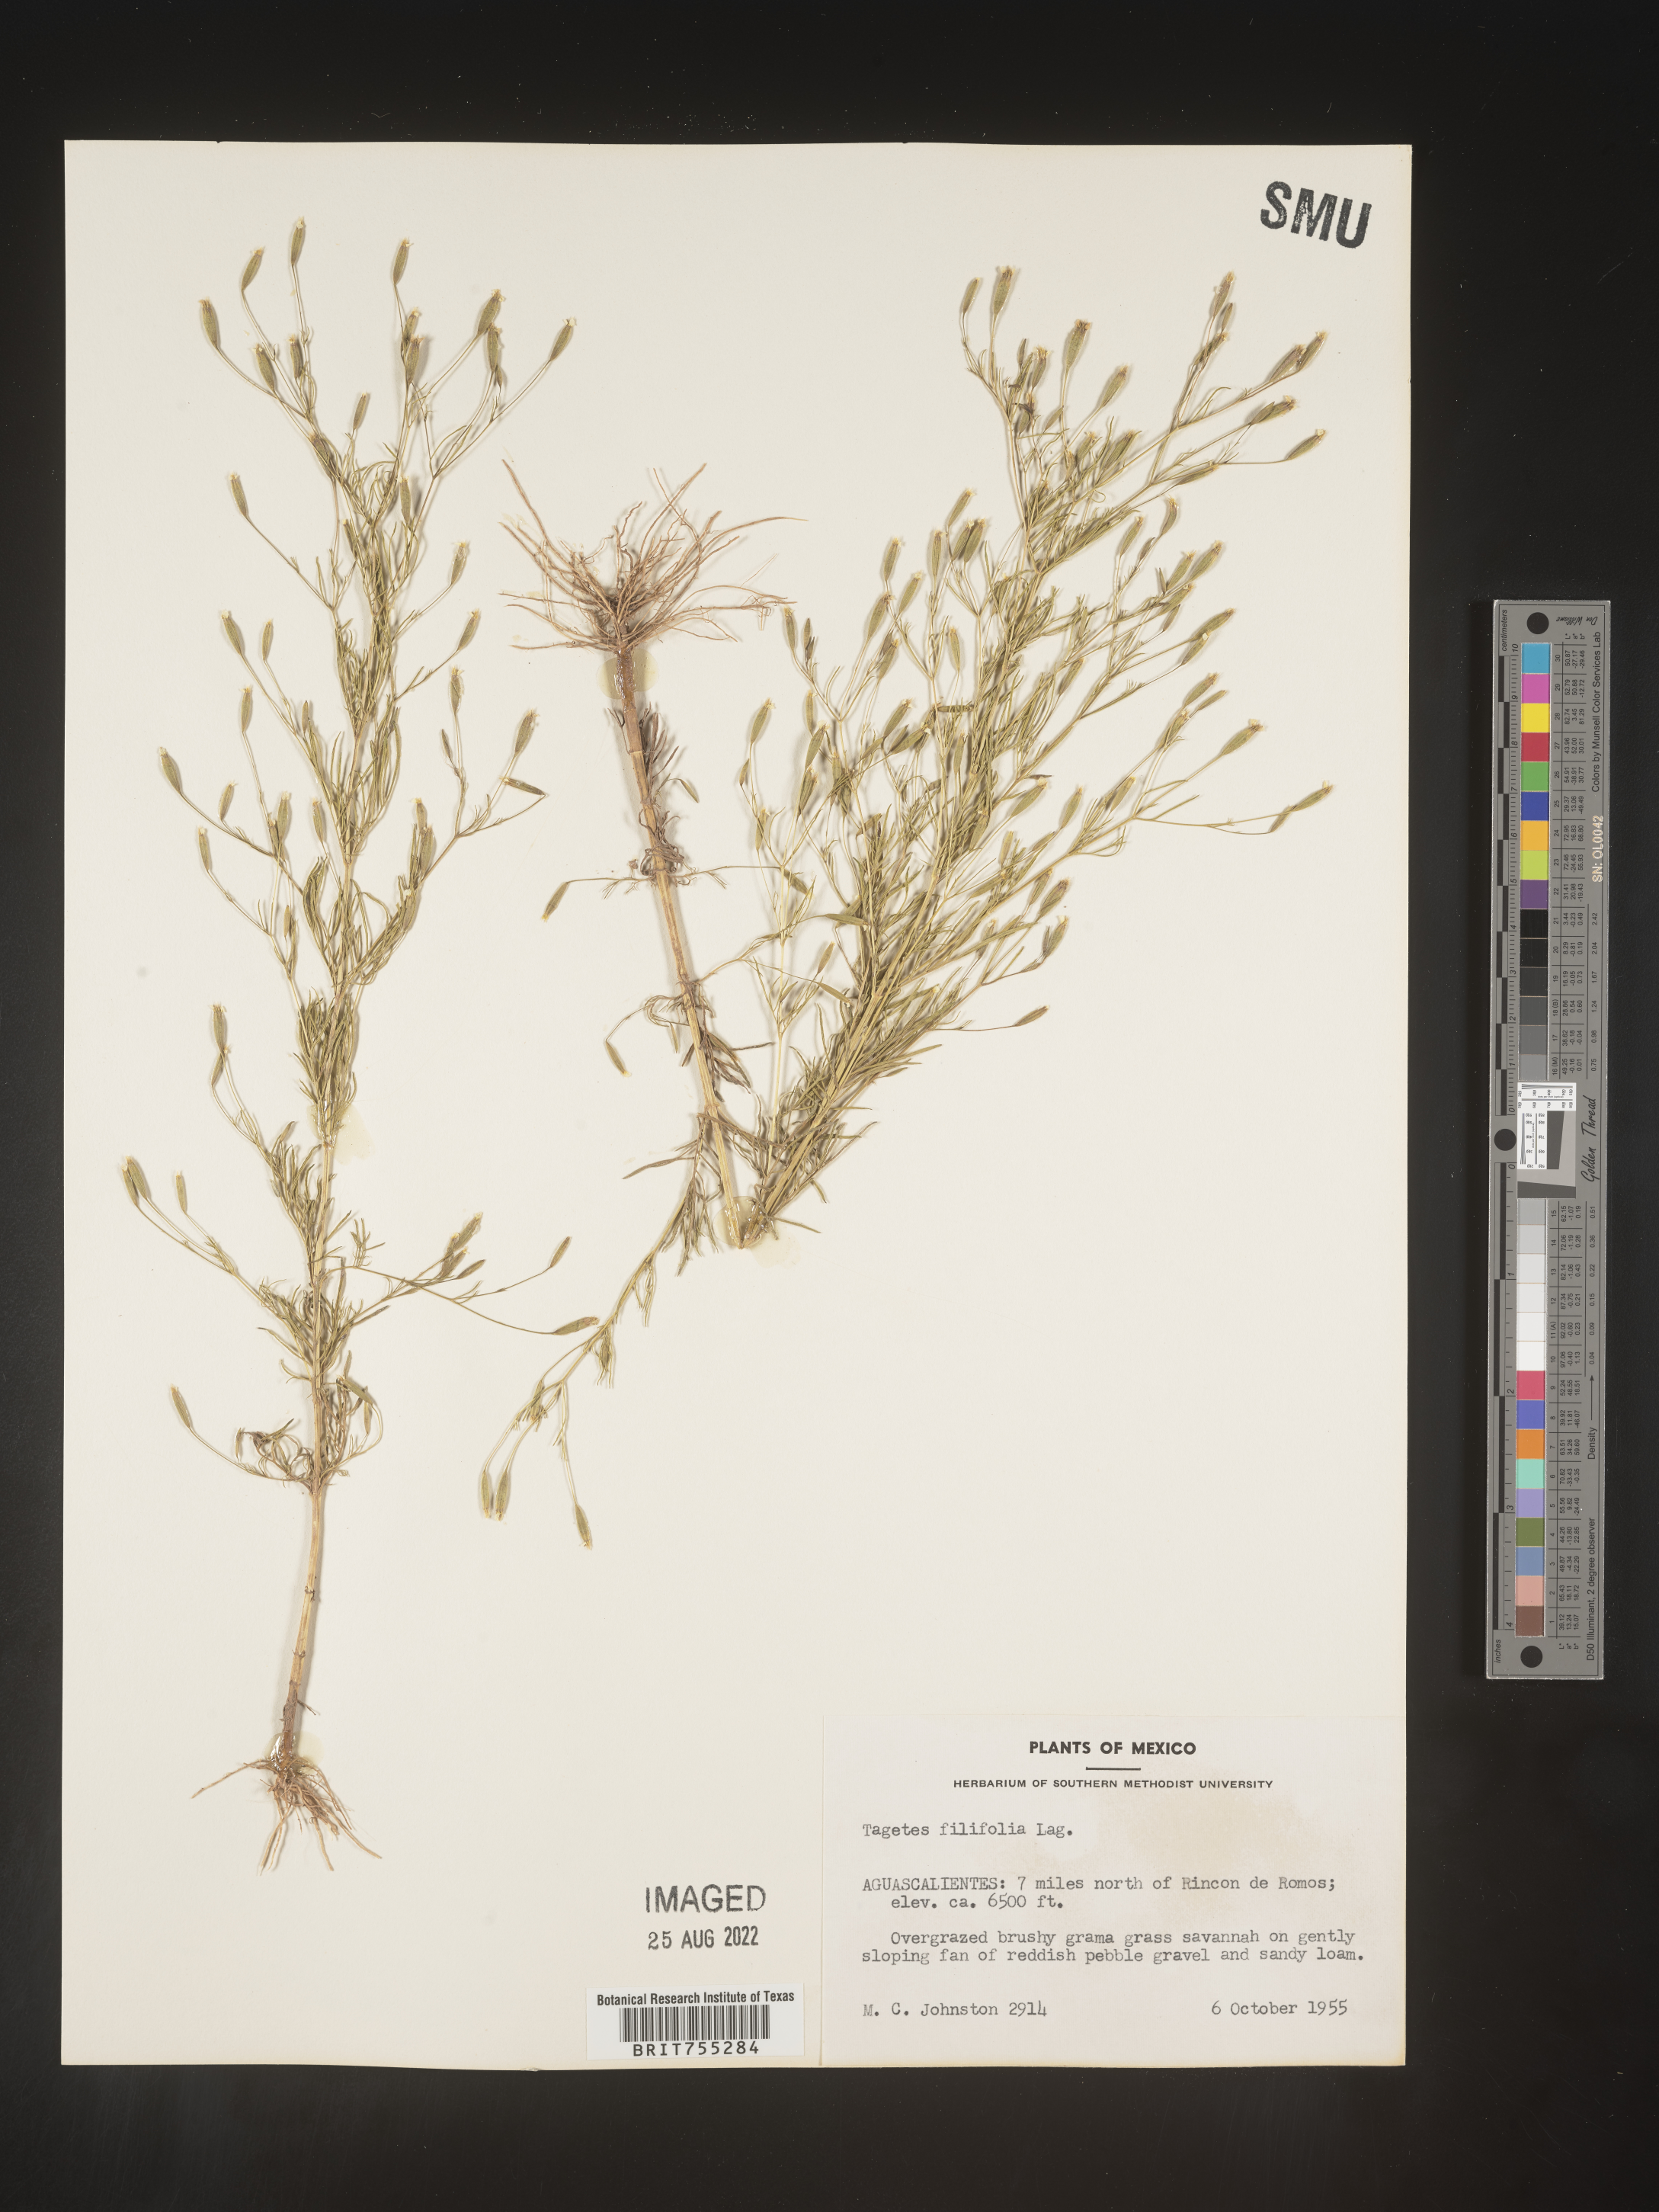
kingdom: Plantae
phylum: Tracheophyta
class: Magnoliopsida
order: Asterales
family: Asteraceae
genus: Tagetes
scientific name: Tagetes
